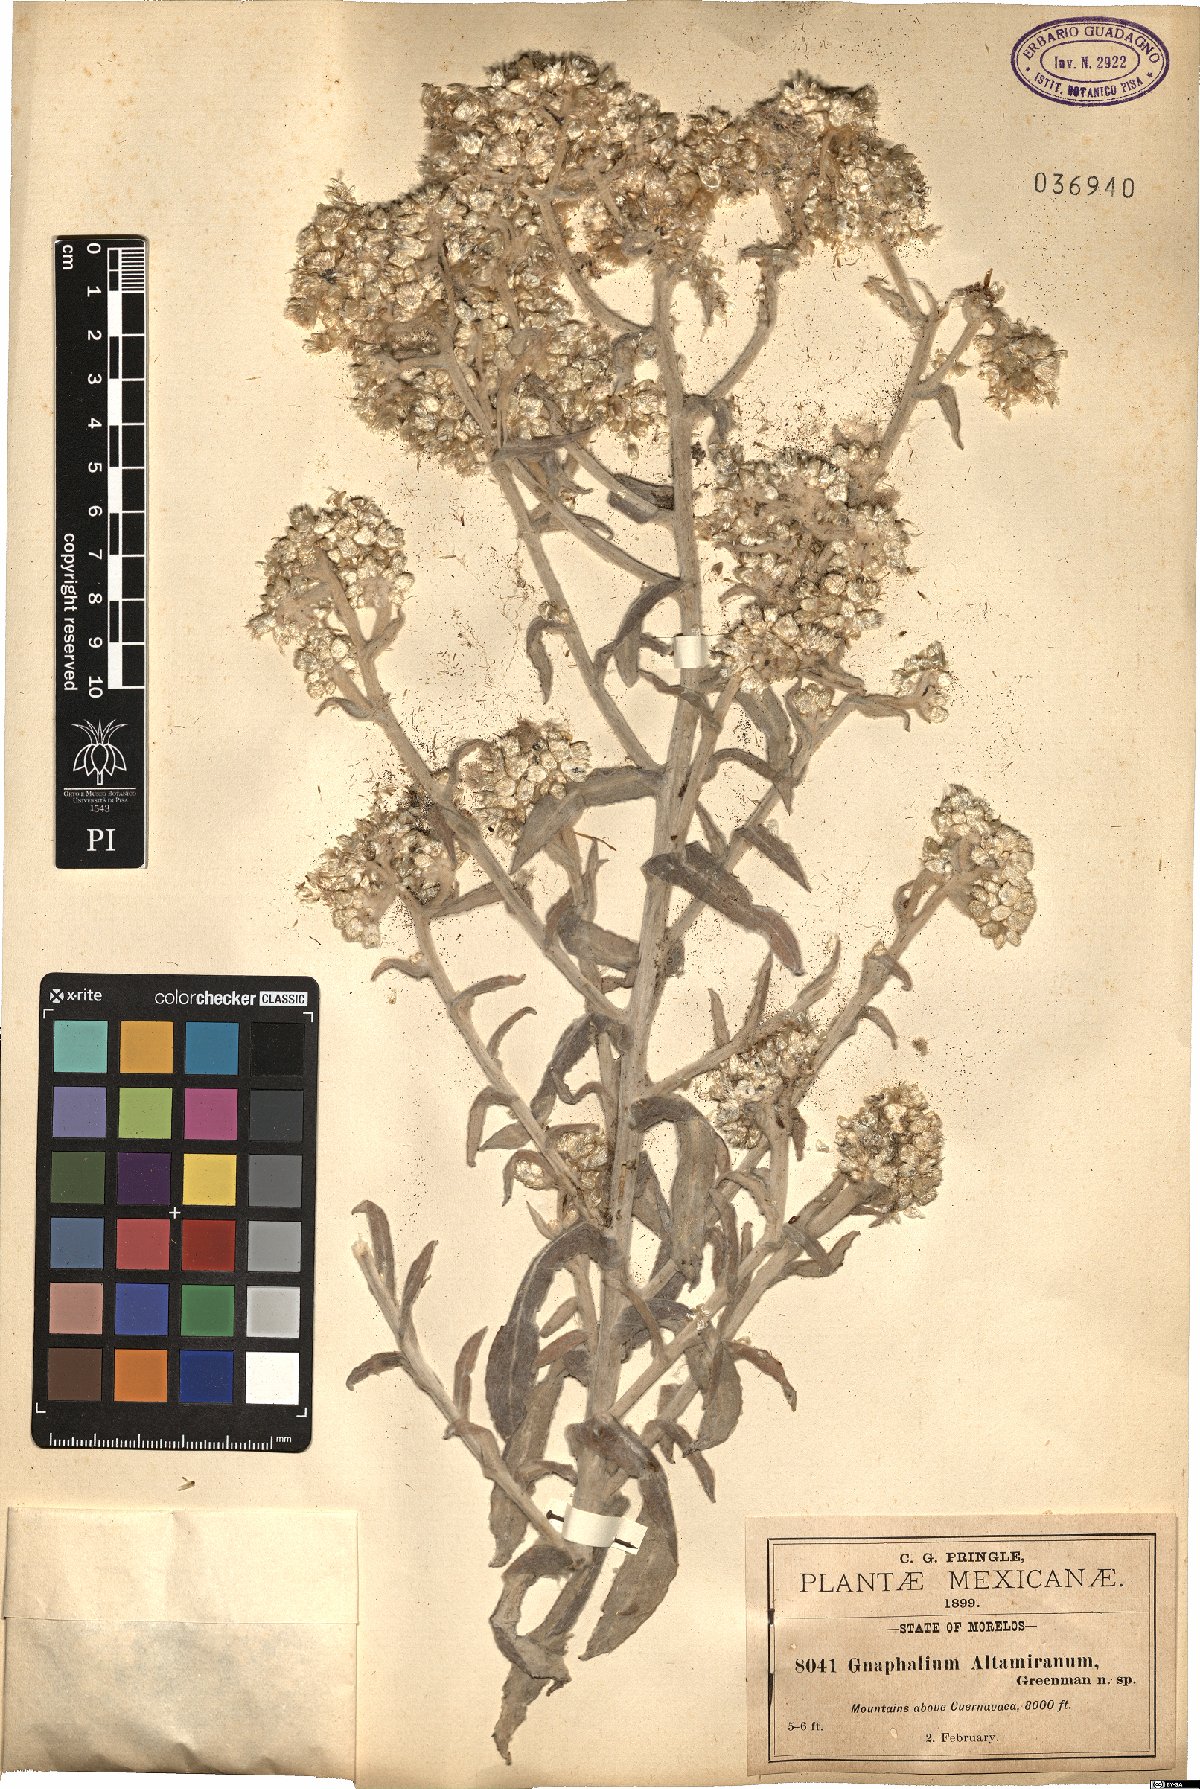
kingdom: Plantae
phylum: Tracheophyta
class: Magnoliopsida
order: Asterales
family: Asteraceae
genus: Pseudognaphalium
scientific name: Pseudognaphalium altamiranum
